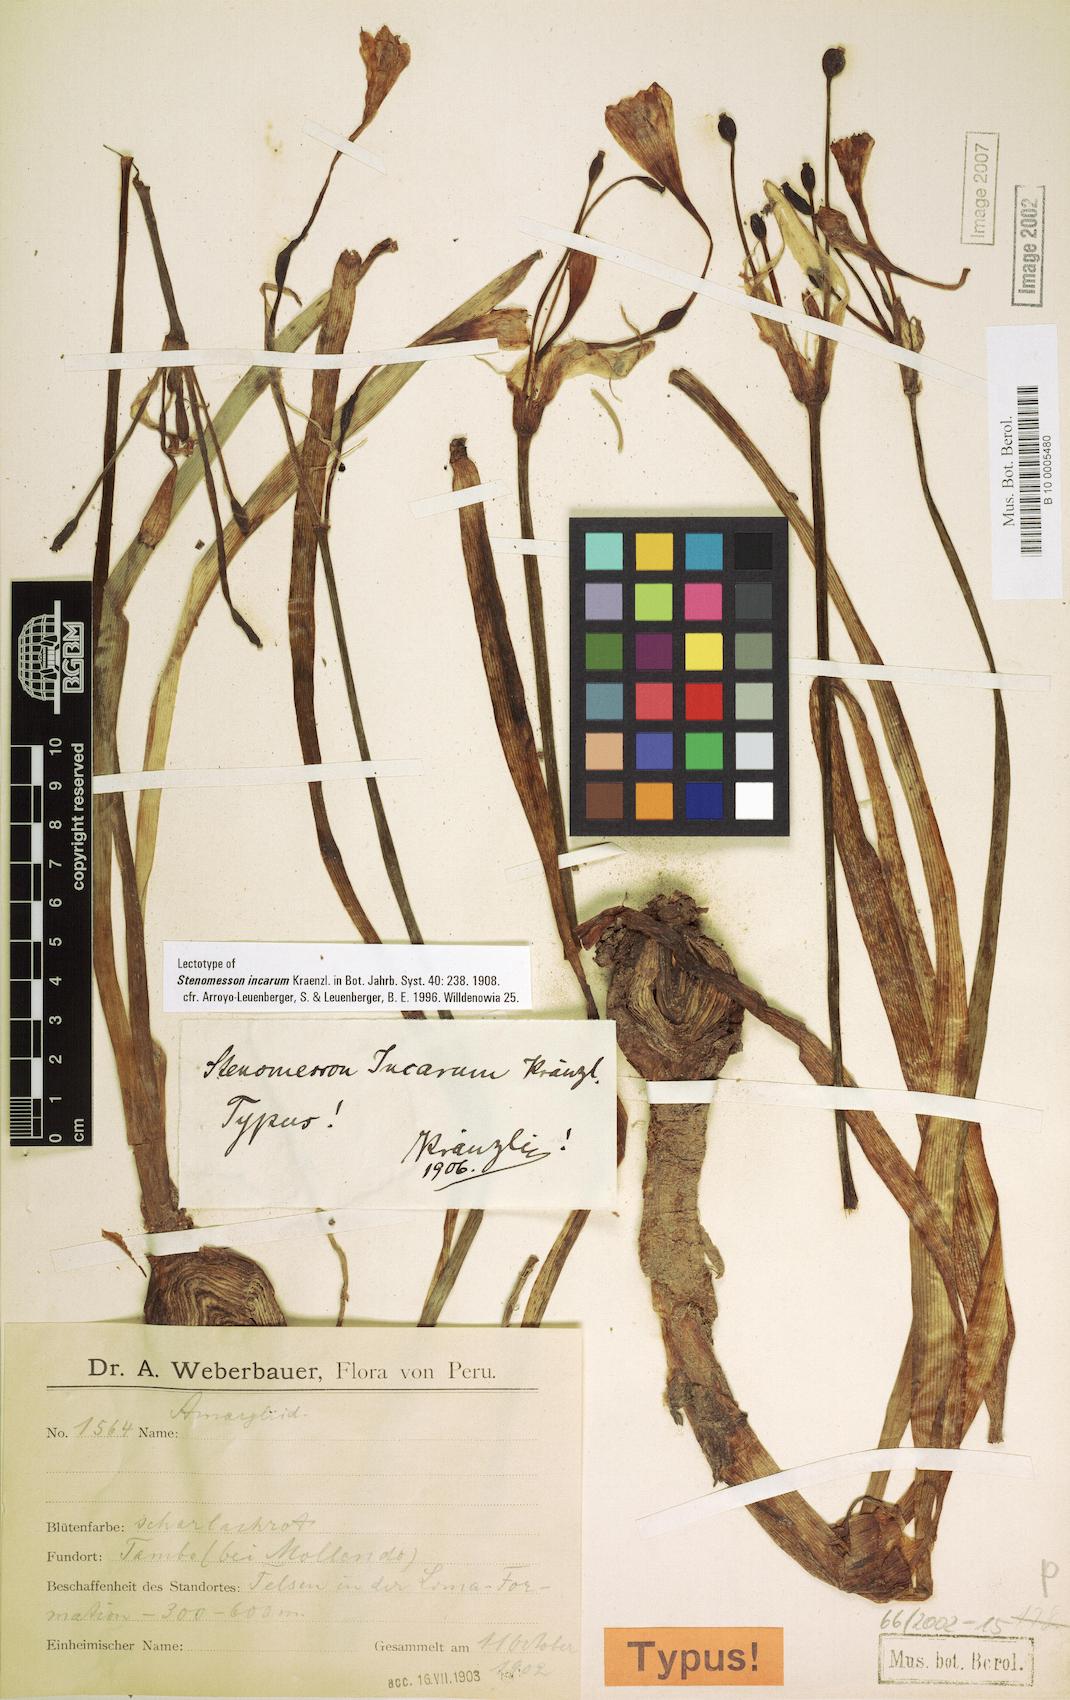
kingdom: Plantae
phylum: Tracheophyta
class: Liliopsida
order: Asparagales
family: Amaryllidaceae
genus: Clinanthus
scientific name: Clinanthus incarum
